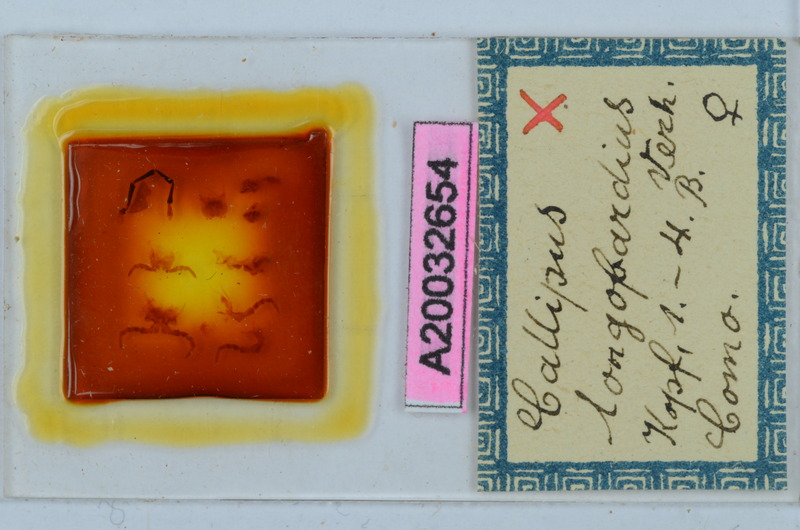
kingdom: Animalia
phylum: Arthropoda
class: Diplopoda
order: Callipodida
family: Callipodidae
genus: Callipus
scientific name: Callipus foetidissimus
